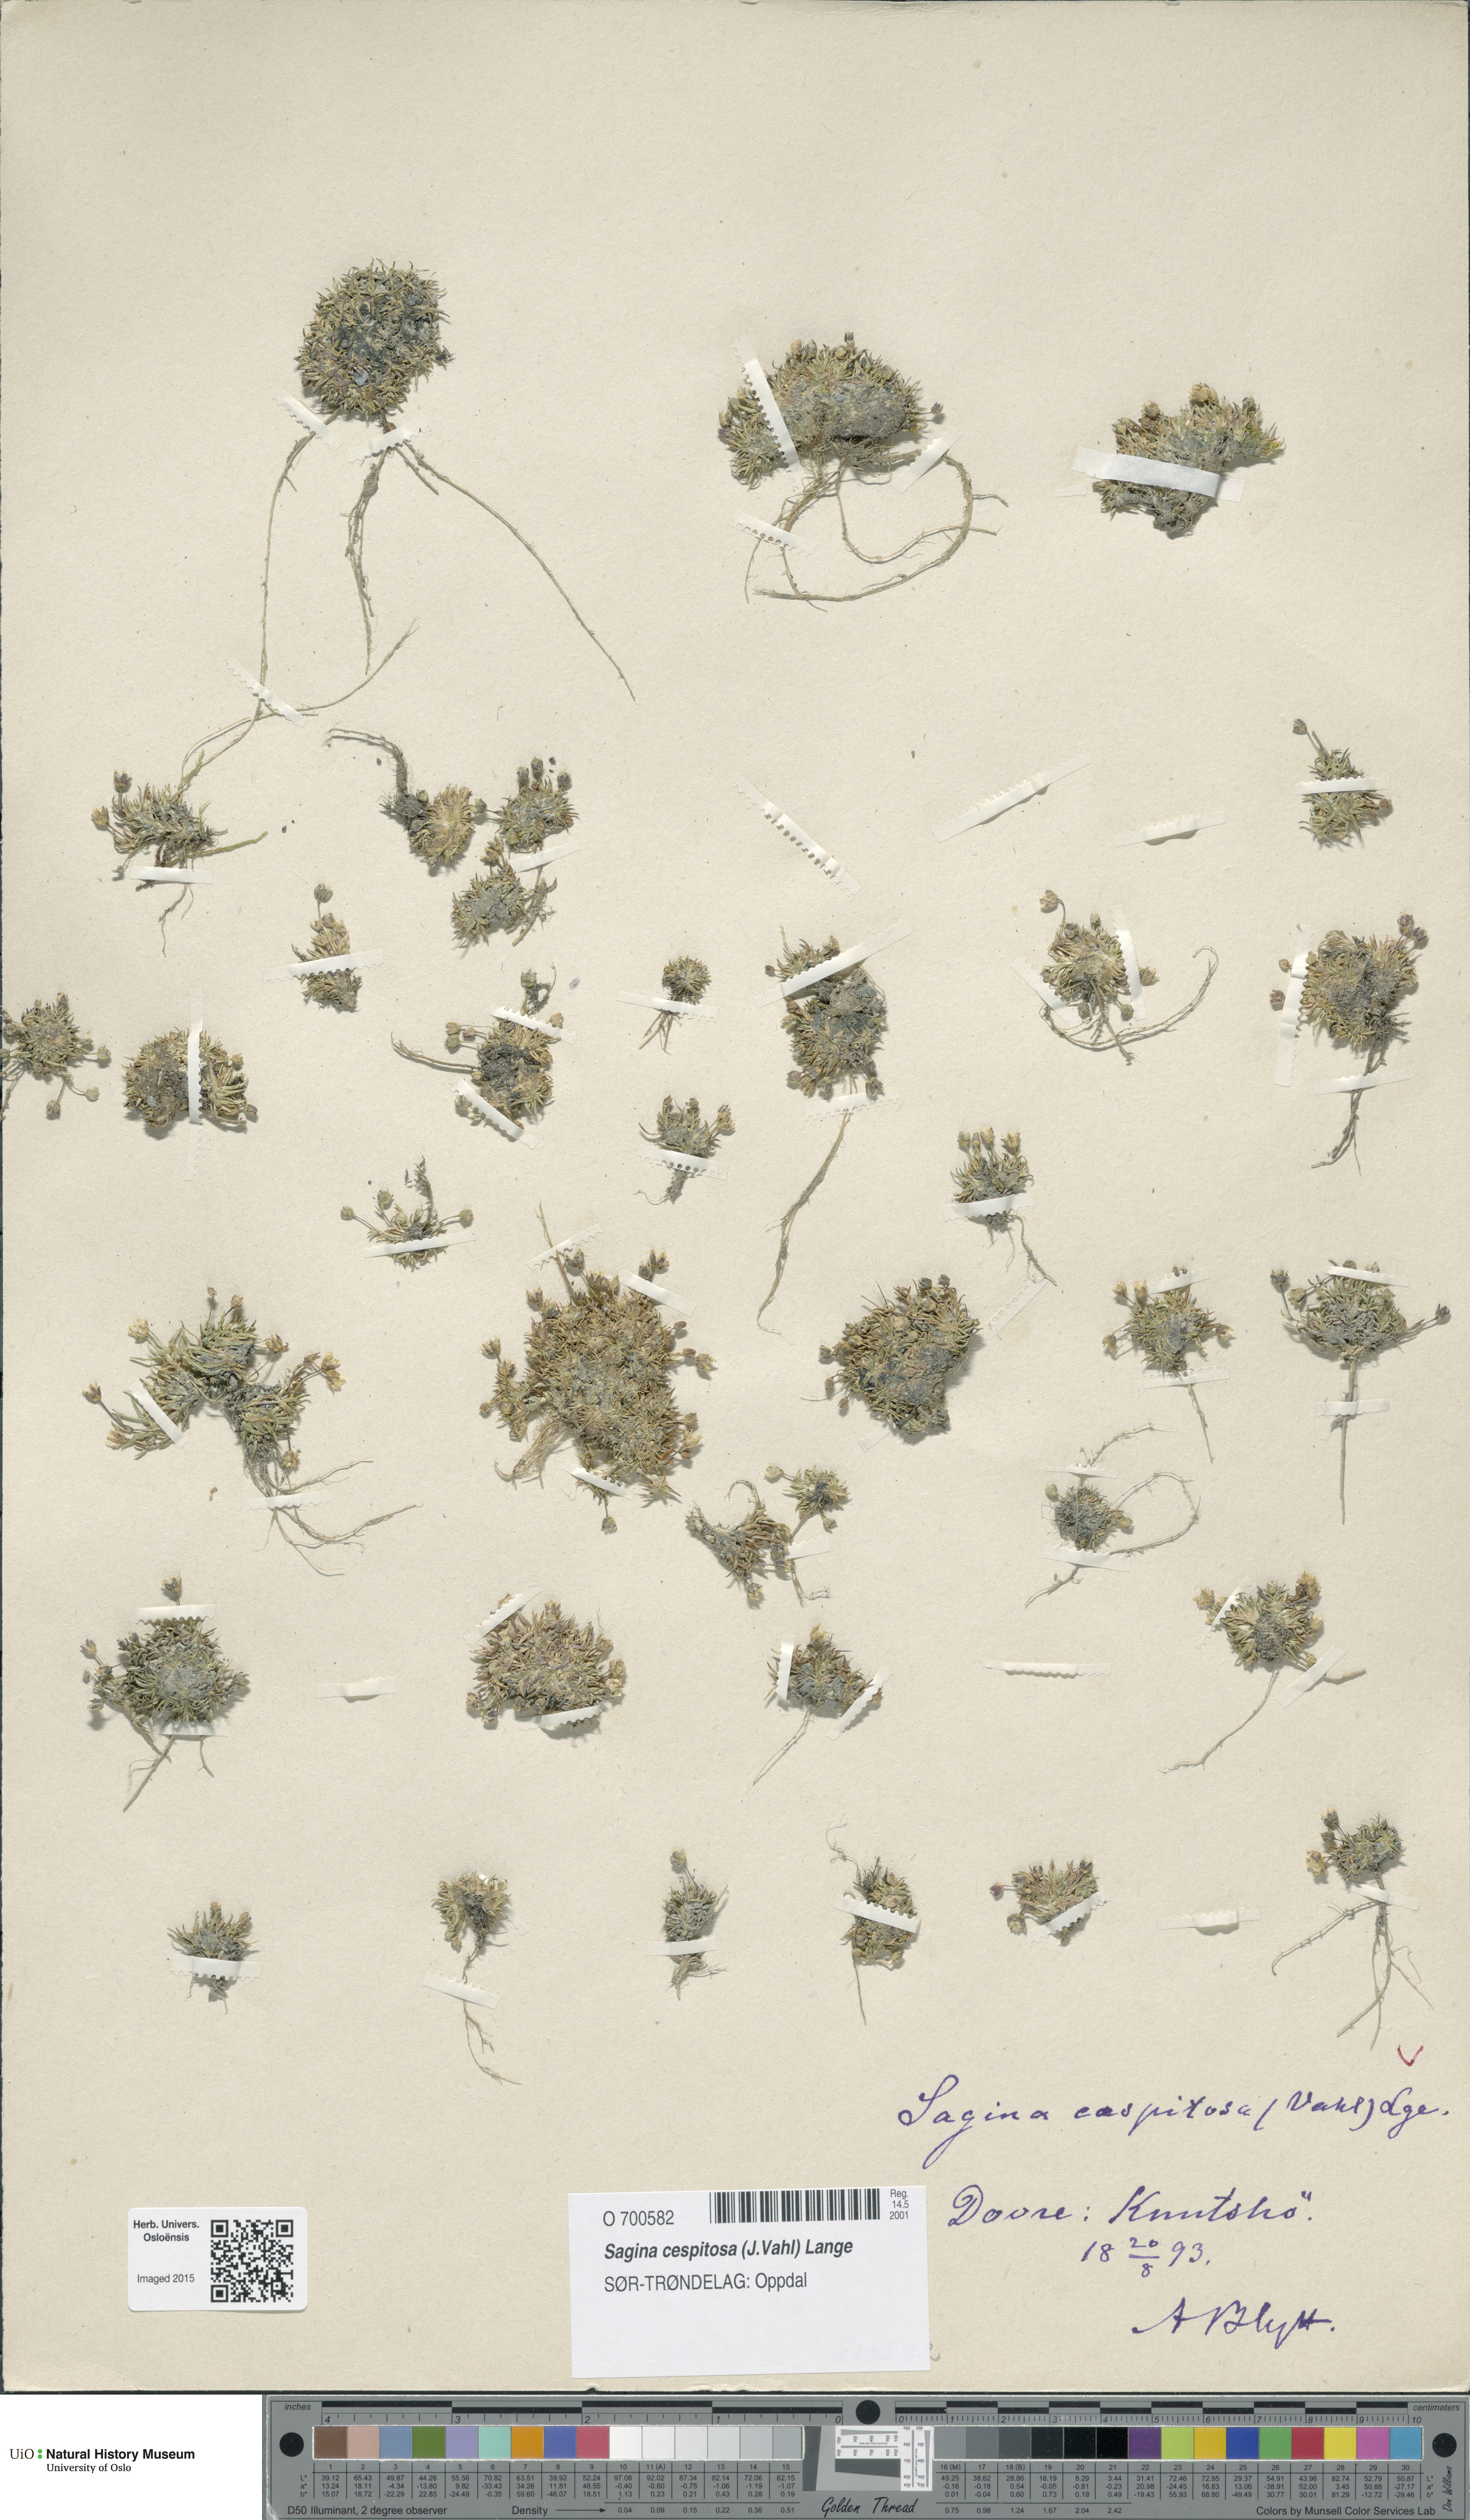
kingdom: Plantae
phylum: Tracheophyta
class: Magnoliopsida
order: Caryophyllales
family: Caryophyllaceae
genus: Sagina
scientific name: Sagina caespitosa
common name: Tufted pearlwort
